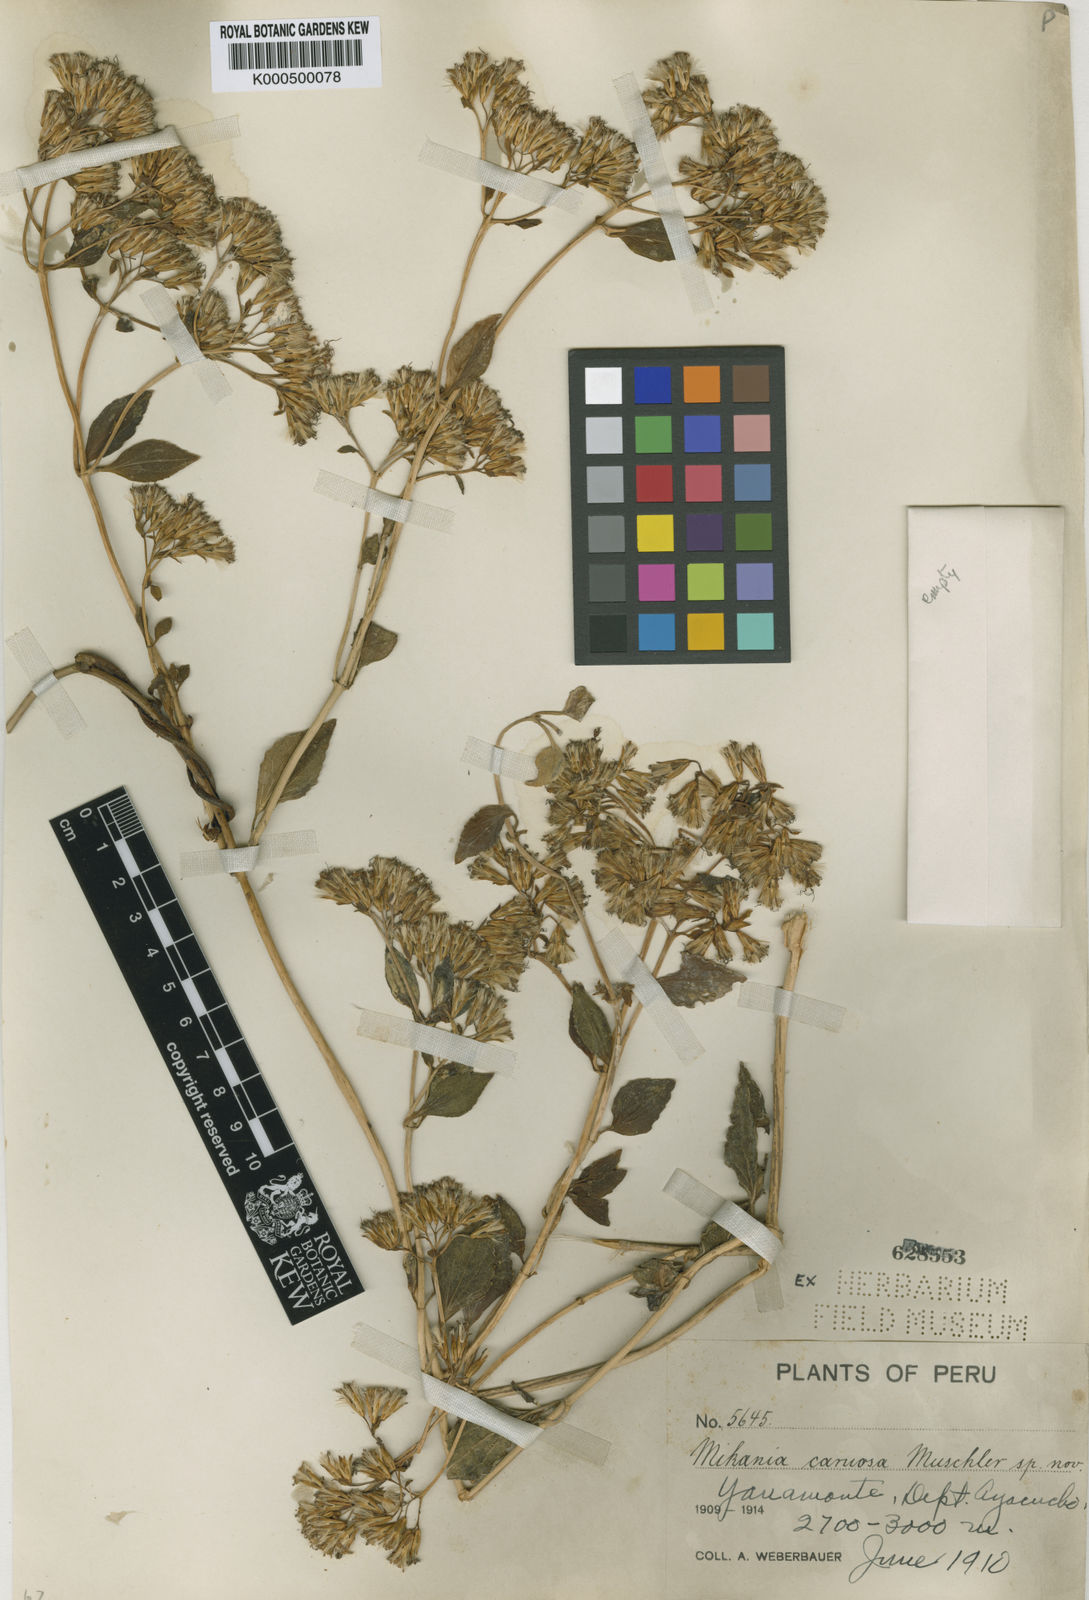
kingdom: Plantae
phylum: Tracheophyta
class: Magnoliopsida
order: Asterales
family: Asteraceae
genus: Mikania
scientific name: Mikania carnosa
